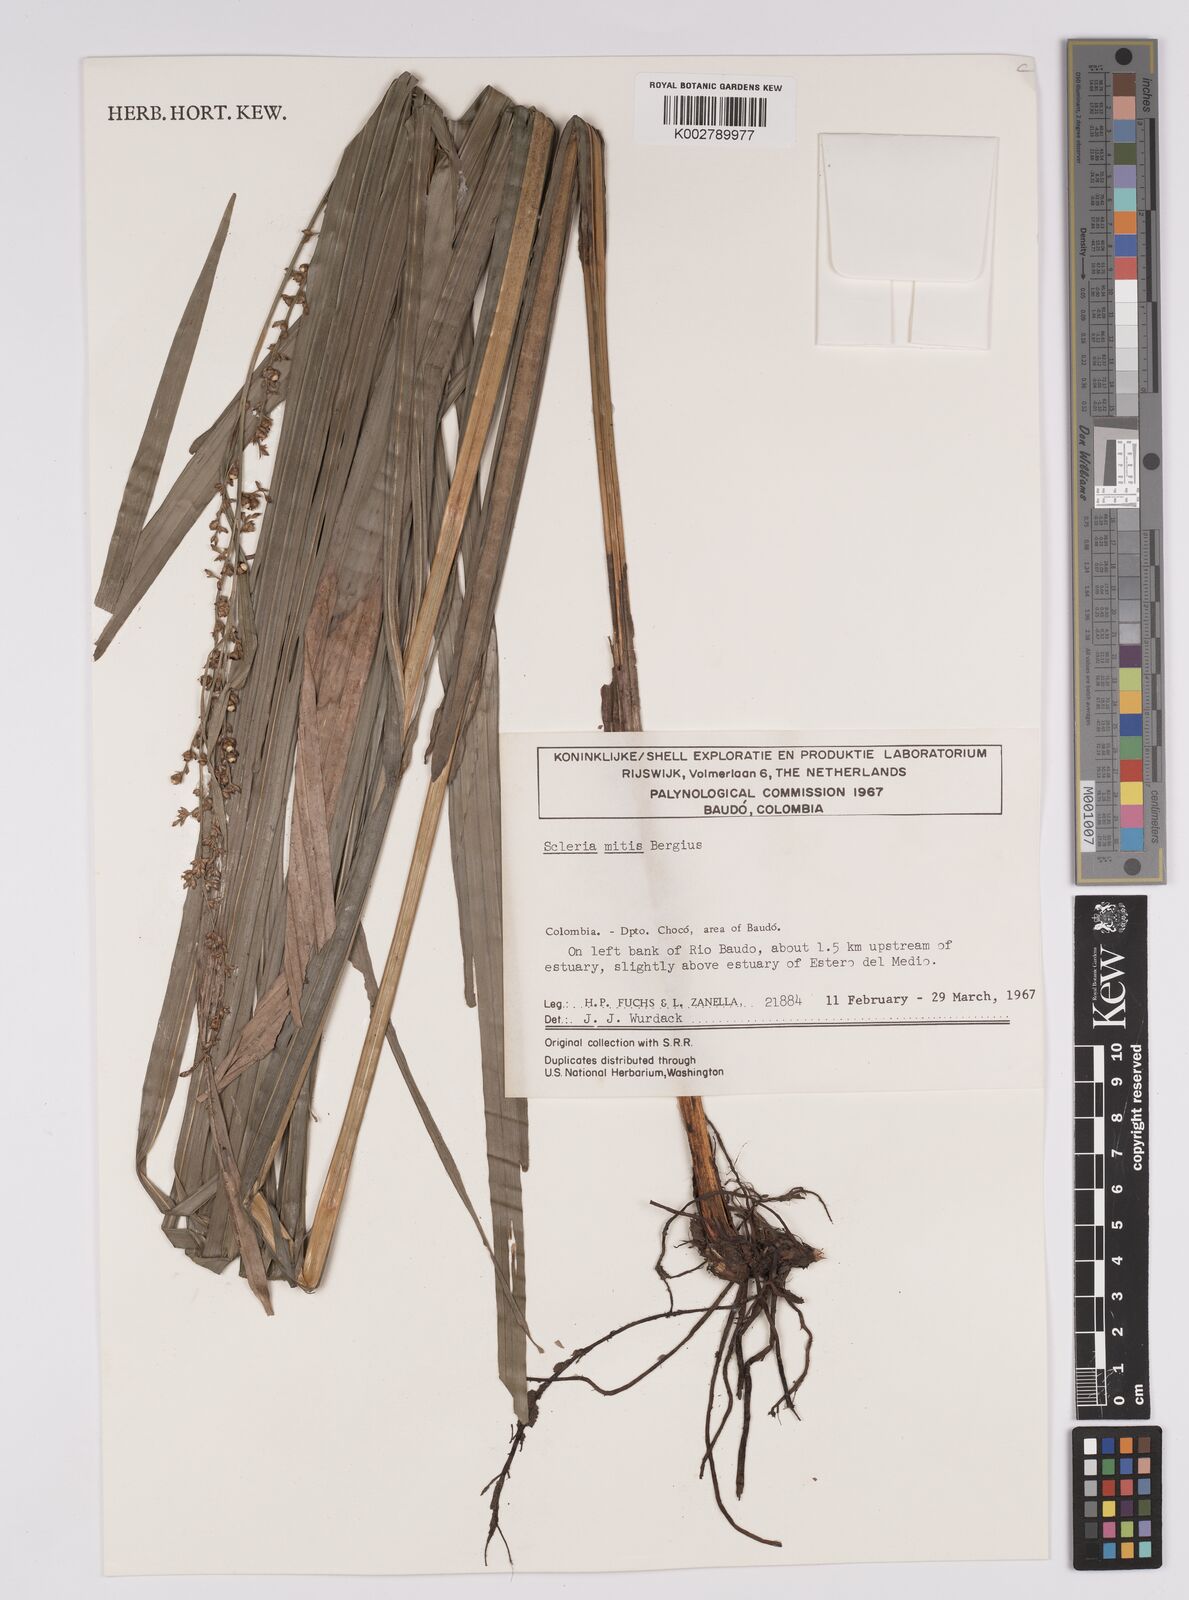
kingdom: Plantae
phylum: Tracheophyta
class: Liliopsida
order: Poales
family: Cyperaceae
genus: Scleria
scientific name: Scleria mitis
